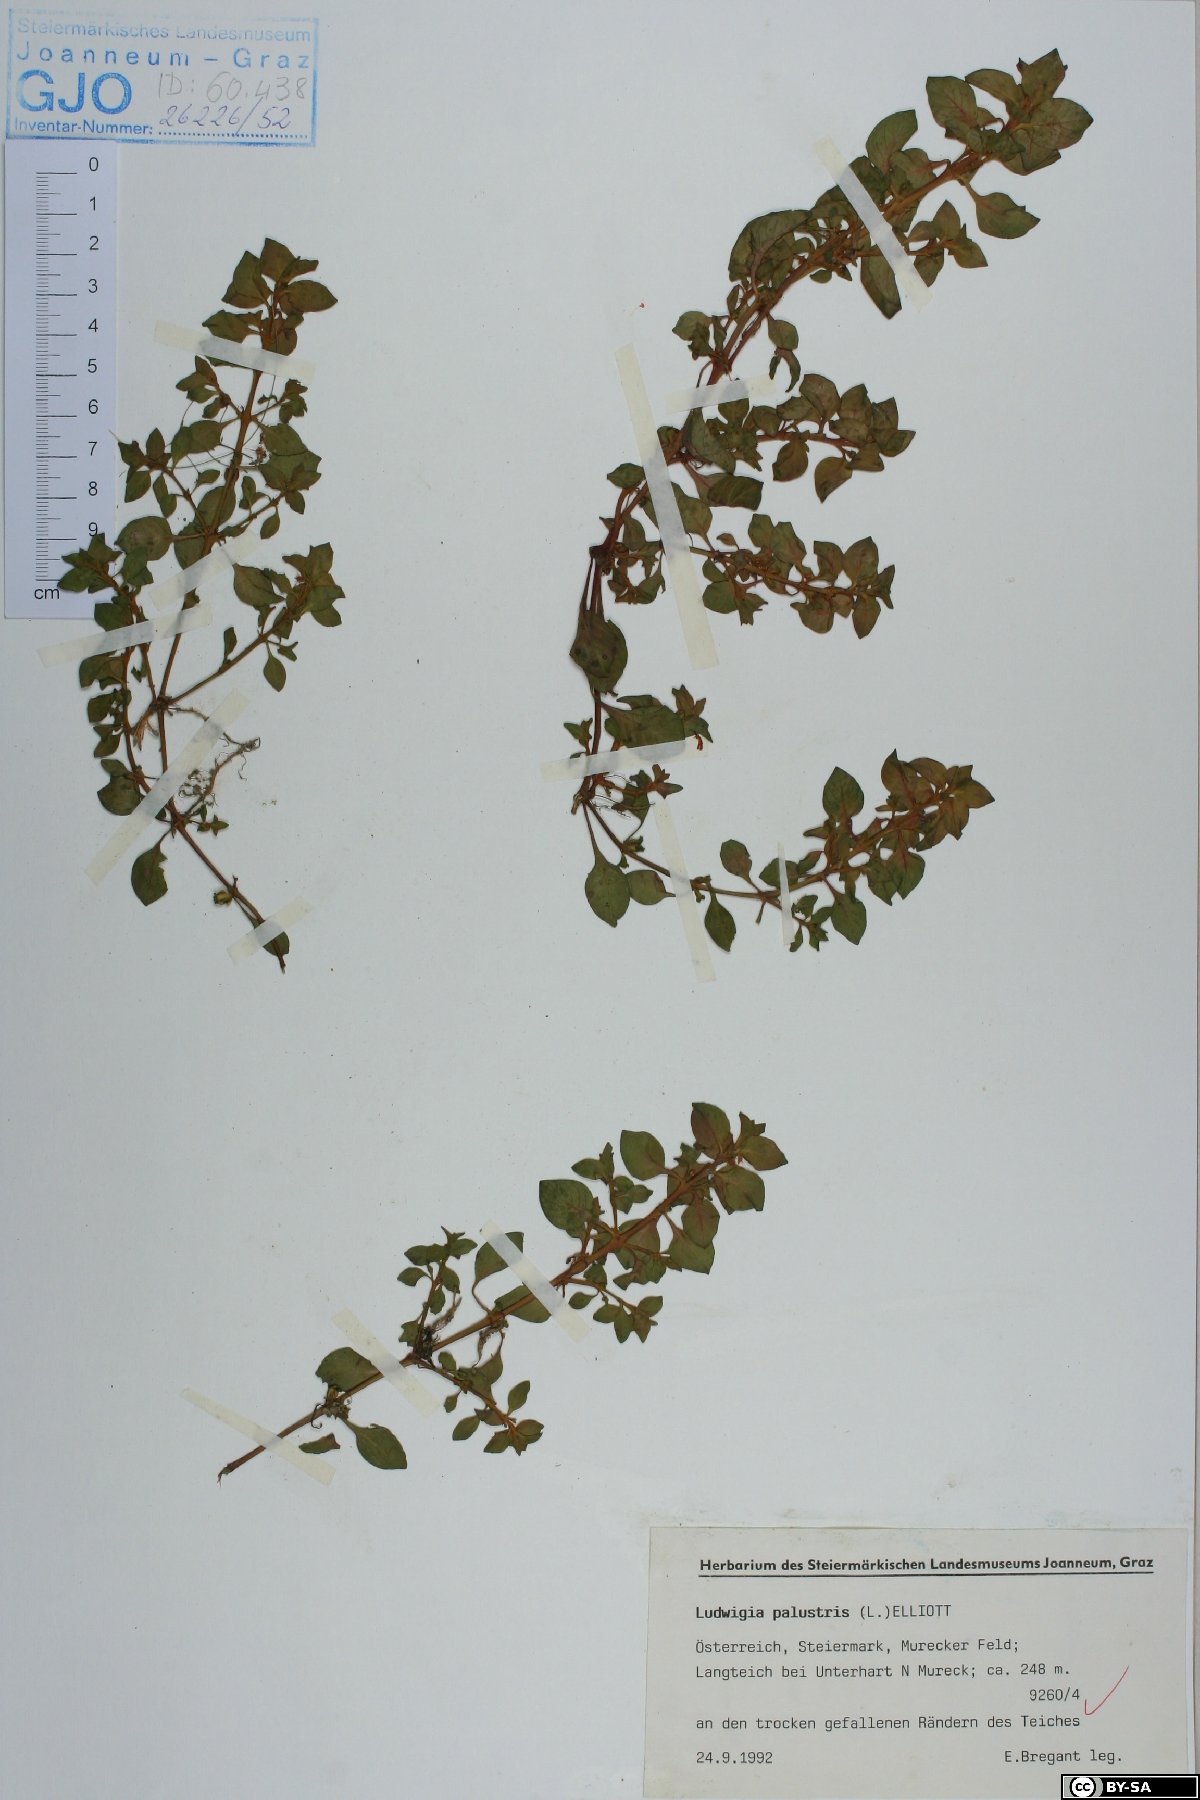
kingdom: Plantae
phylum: Tracheophyta
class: Magnoliopsida
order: Myrtales
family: Onagraceae
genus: Ludwigia
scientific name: Ludwigia palustris
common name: Hampshire-purslane
